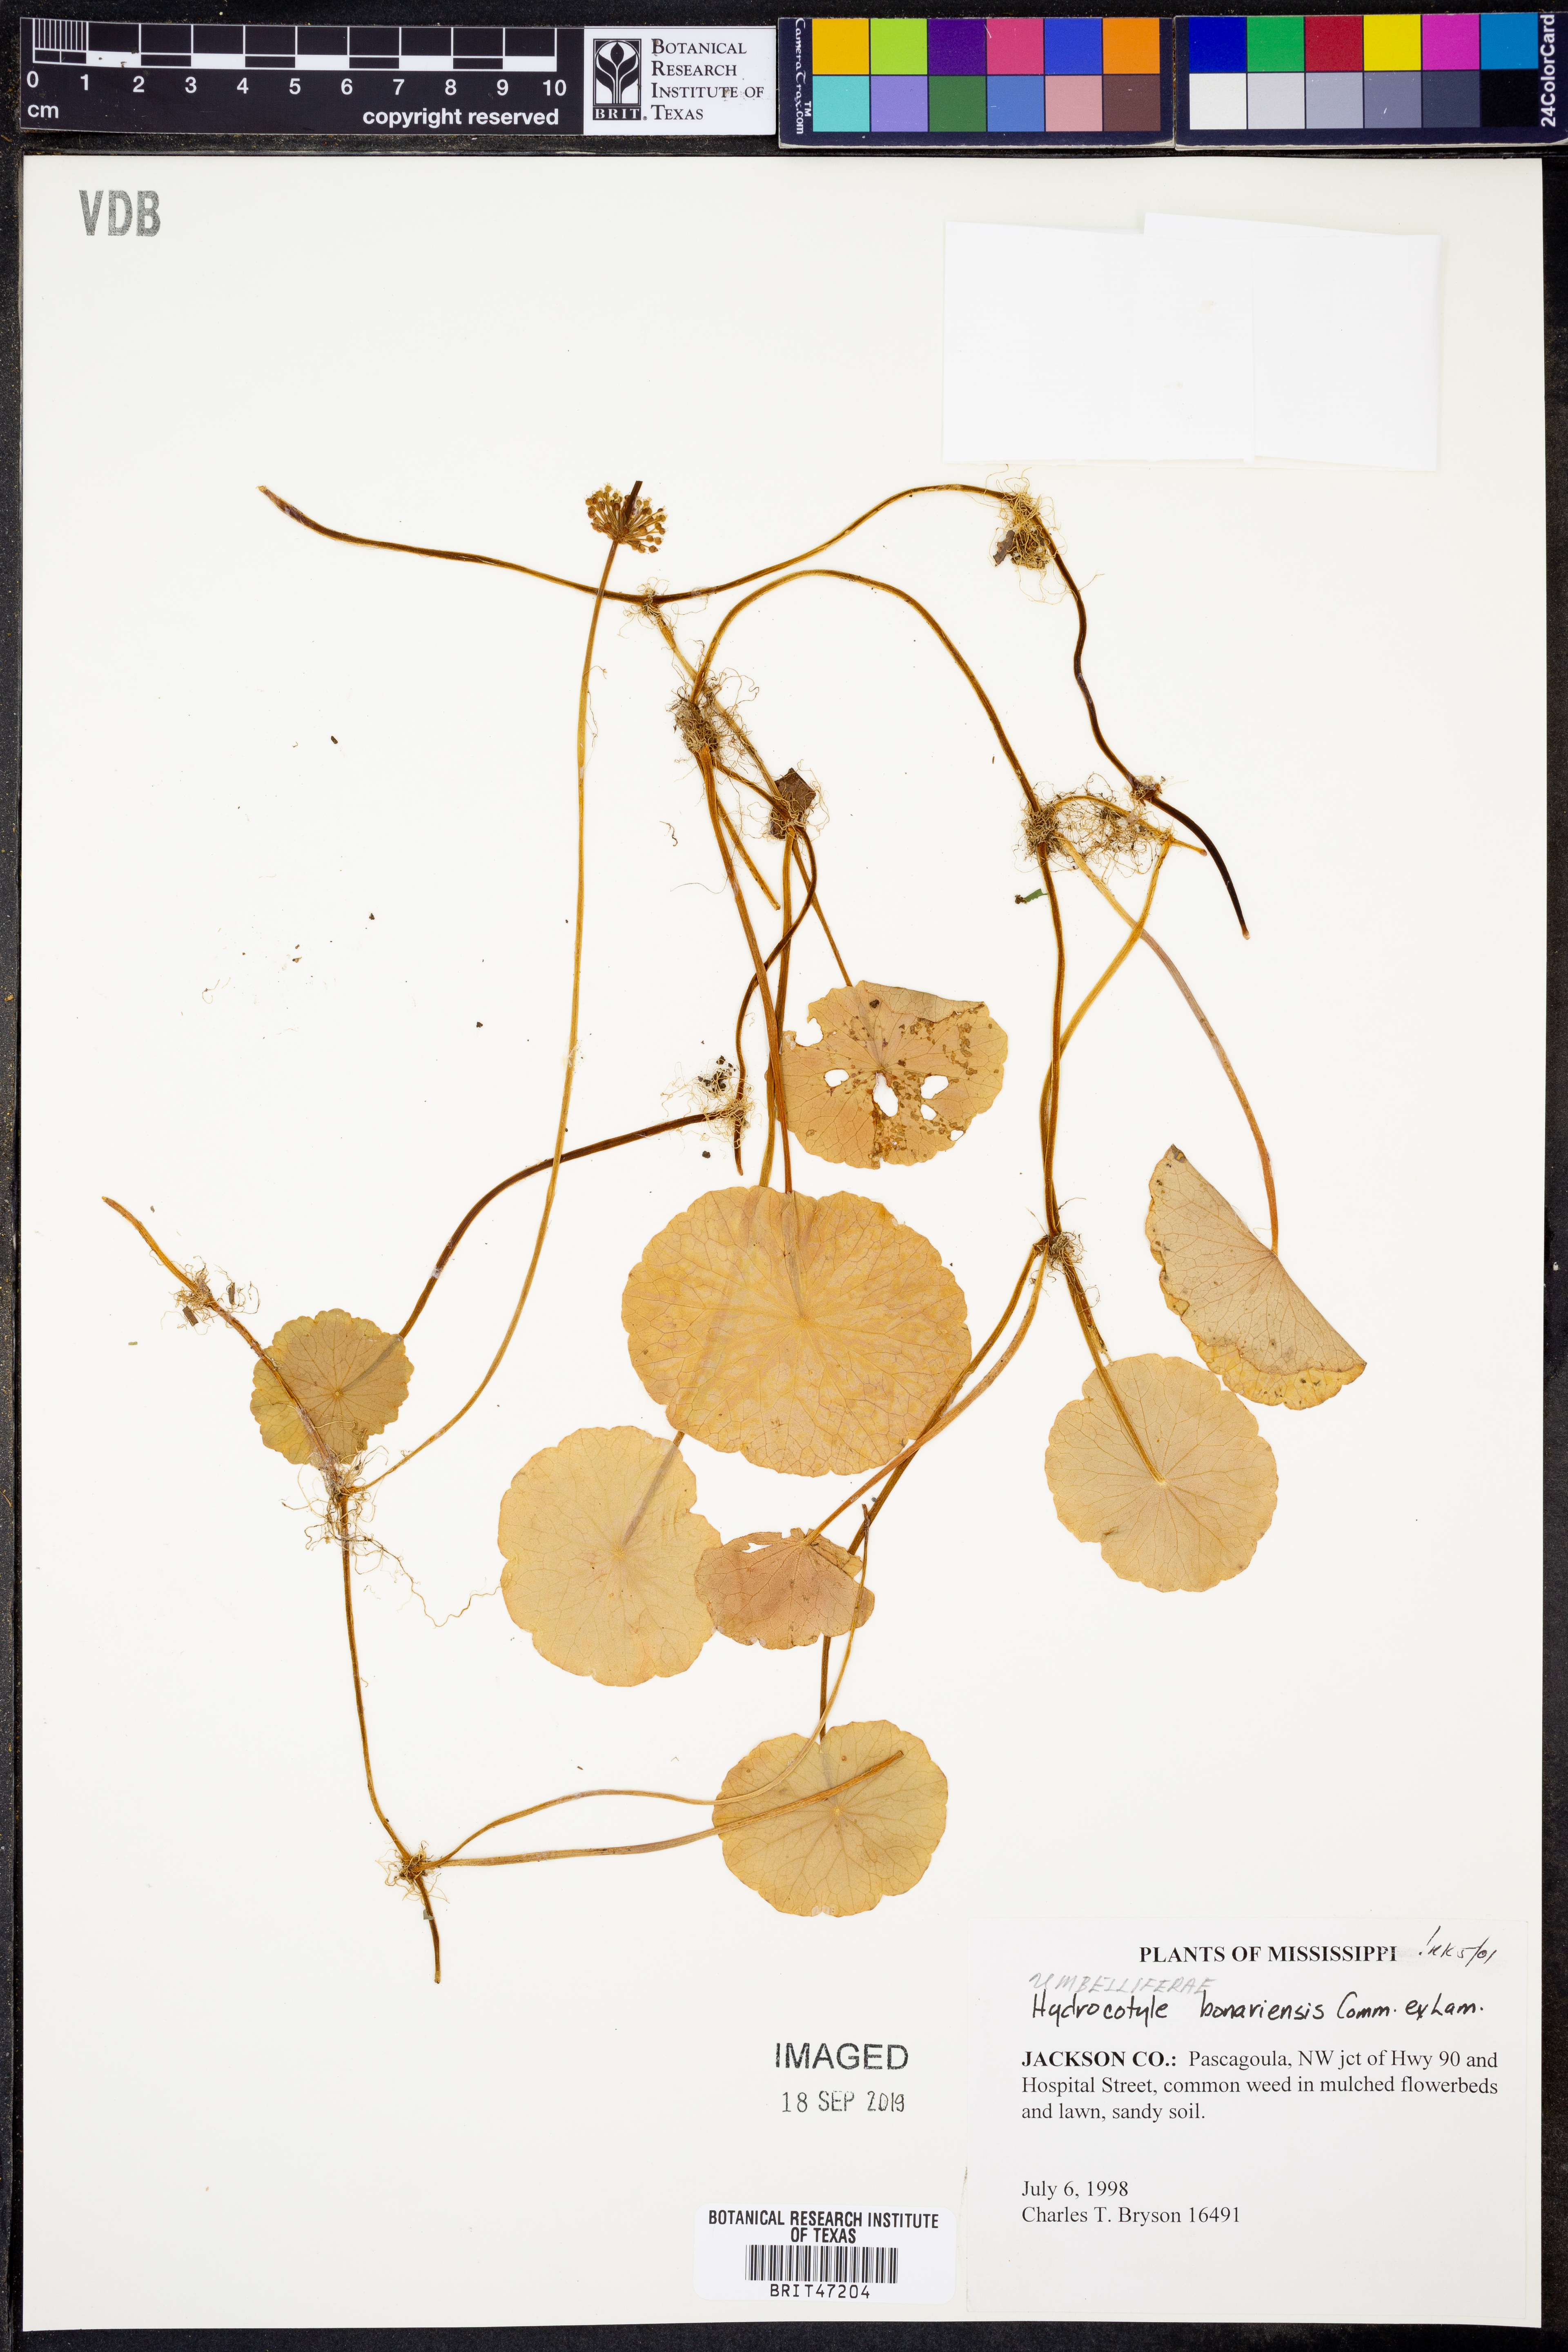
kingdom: Plantae
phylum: Tracheophyta
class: Magnoliopsida
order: Apiales
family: Araliaceae
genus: Hydrocotyle
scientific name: Hydrocotyle bonariensis
